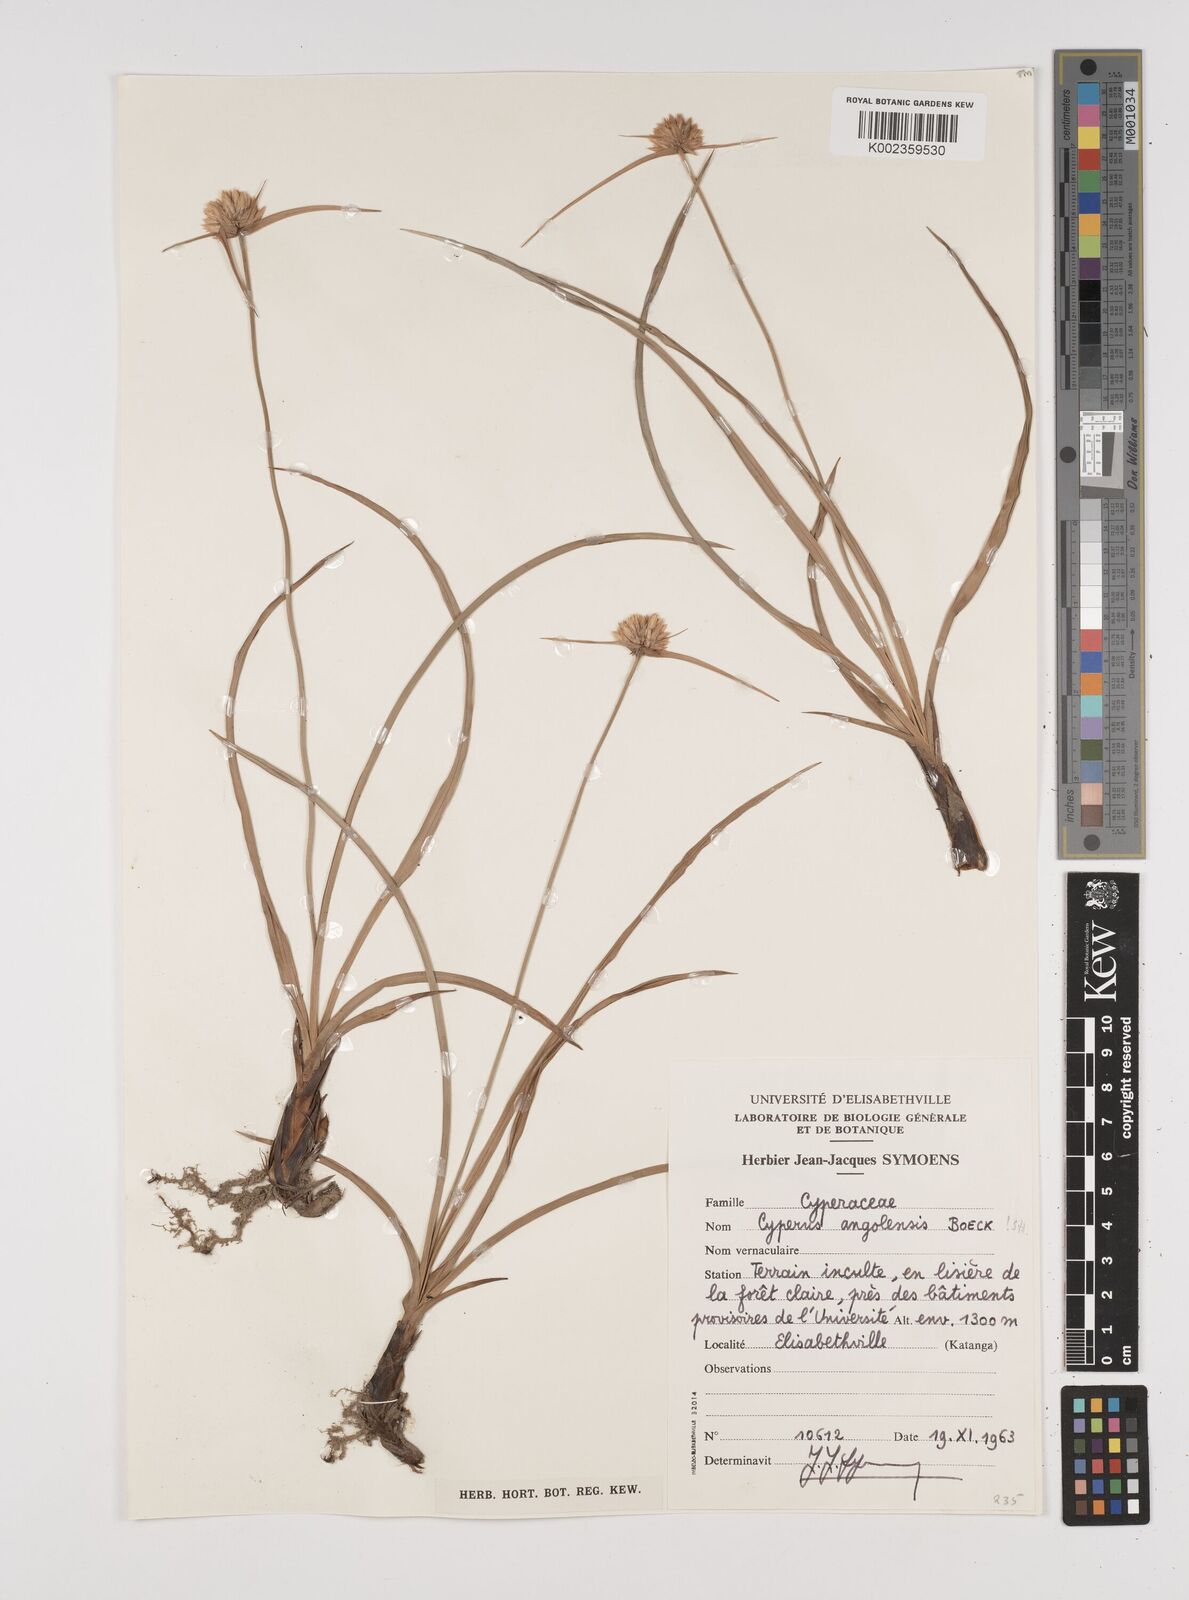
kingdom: Plantae
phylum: Tracheophyta
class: Liliopsida
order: Poales
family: Cyperaceae
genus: Cyperus
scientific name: Cyperus angolensis
